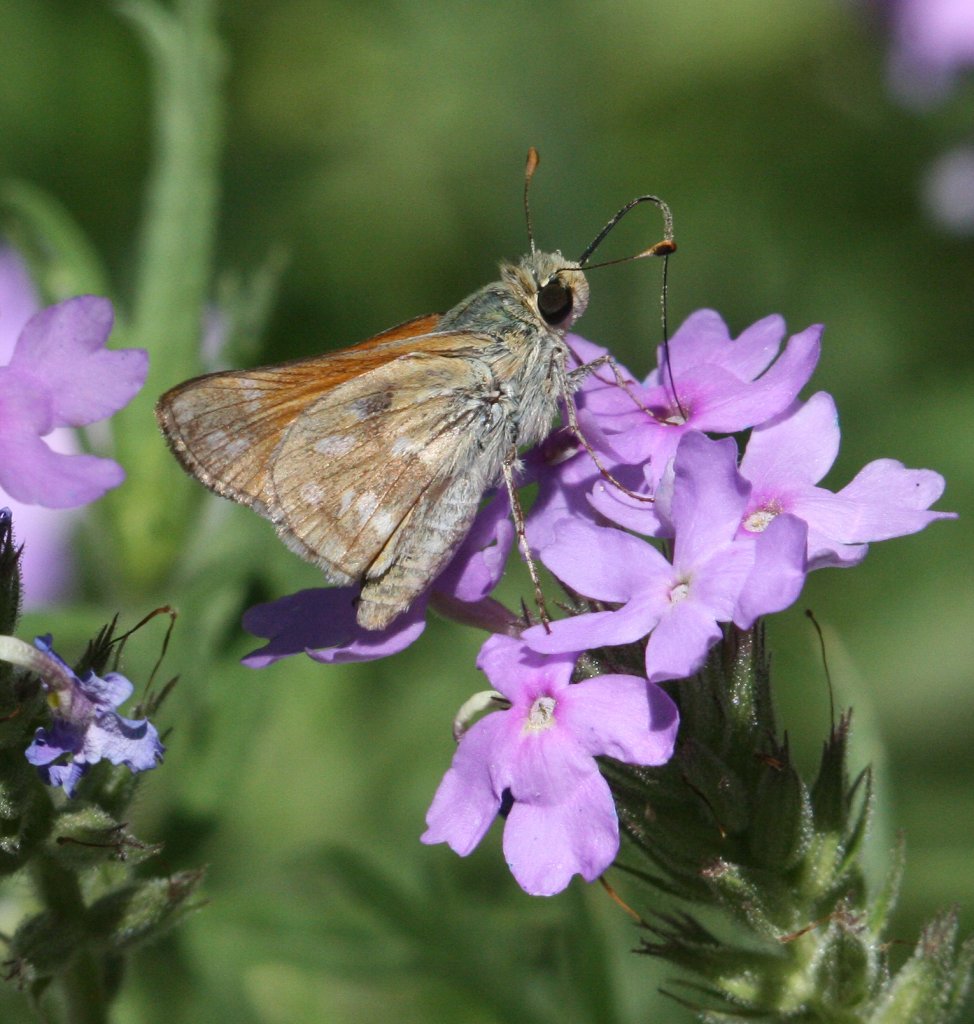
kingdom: Animalia
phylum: Arthropoda
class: Insecta
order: Lepidoptera
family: Hesperiidae
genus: Hesperia
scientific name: Hesperia pahaska
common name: Pahaska Skipper
